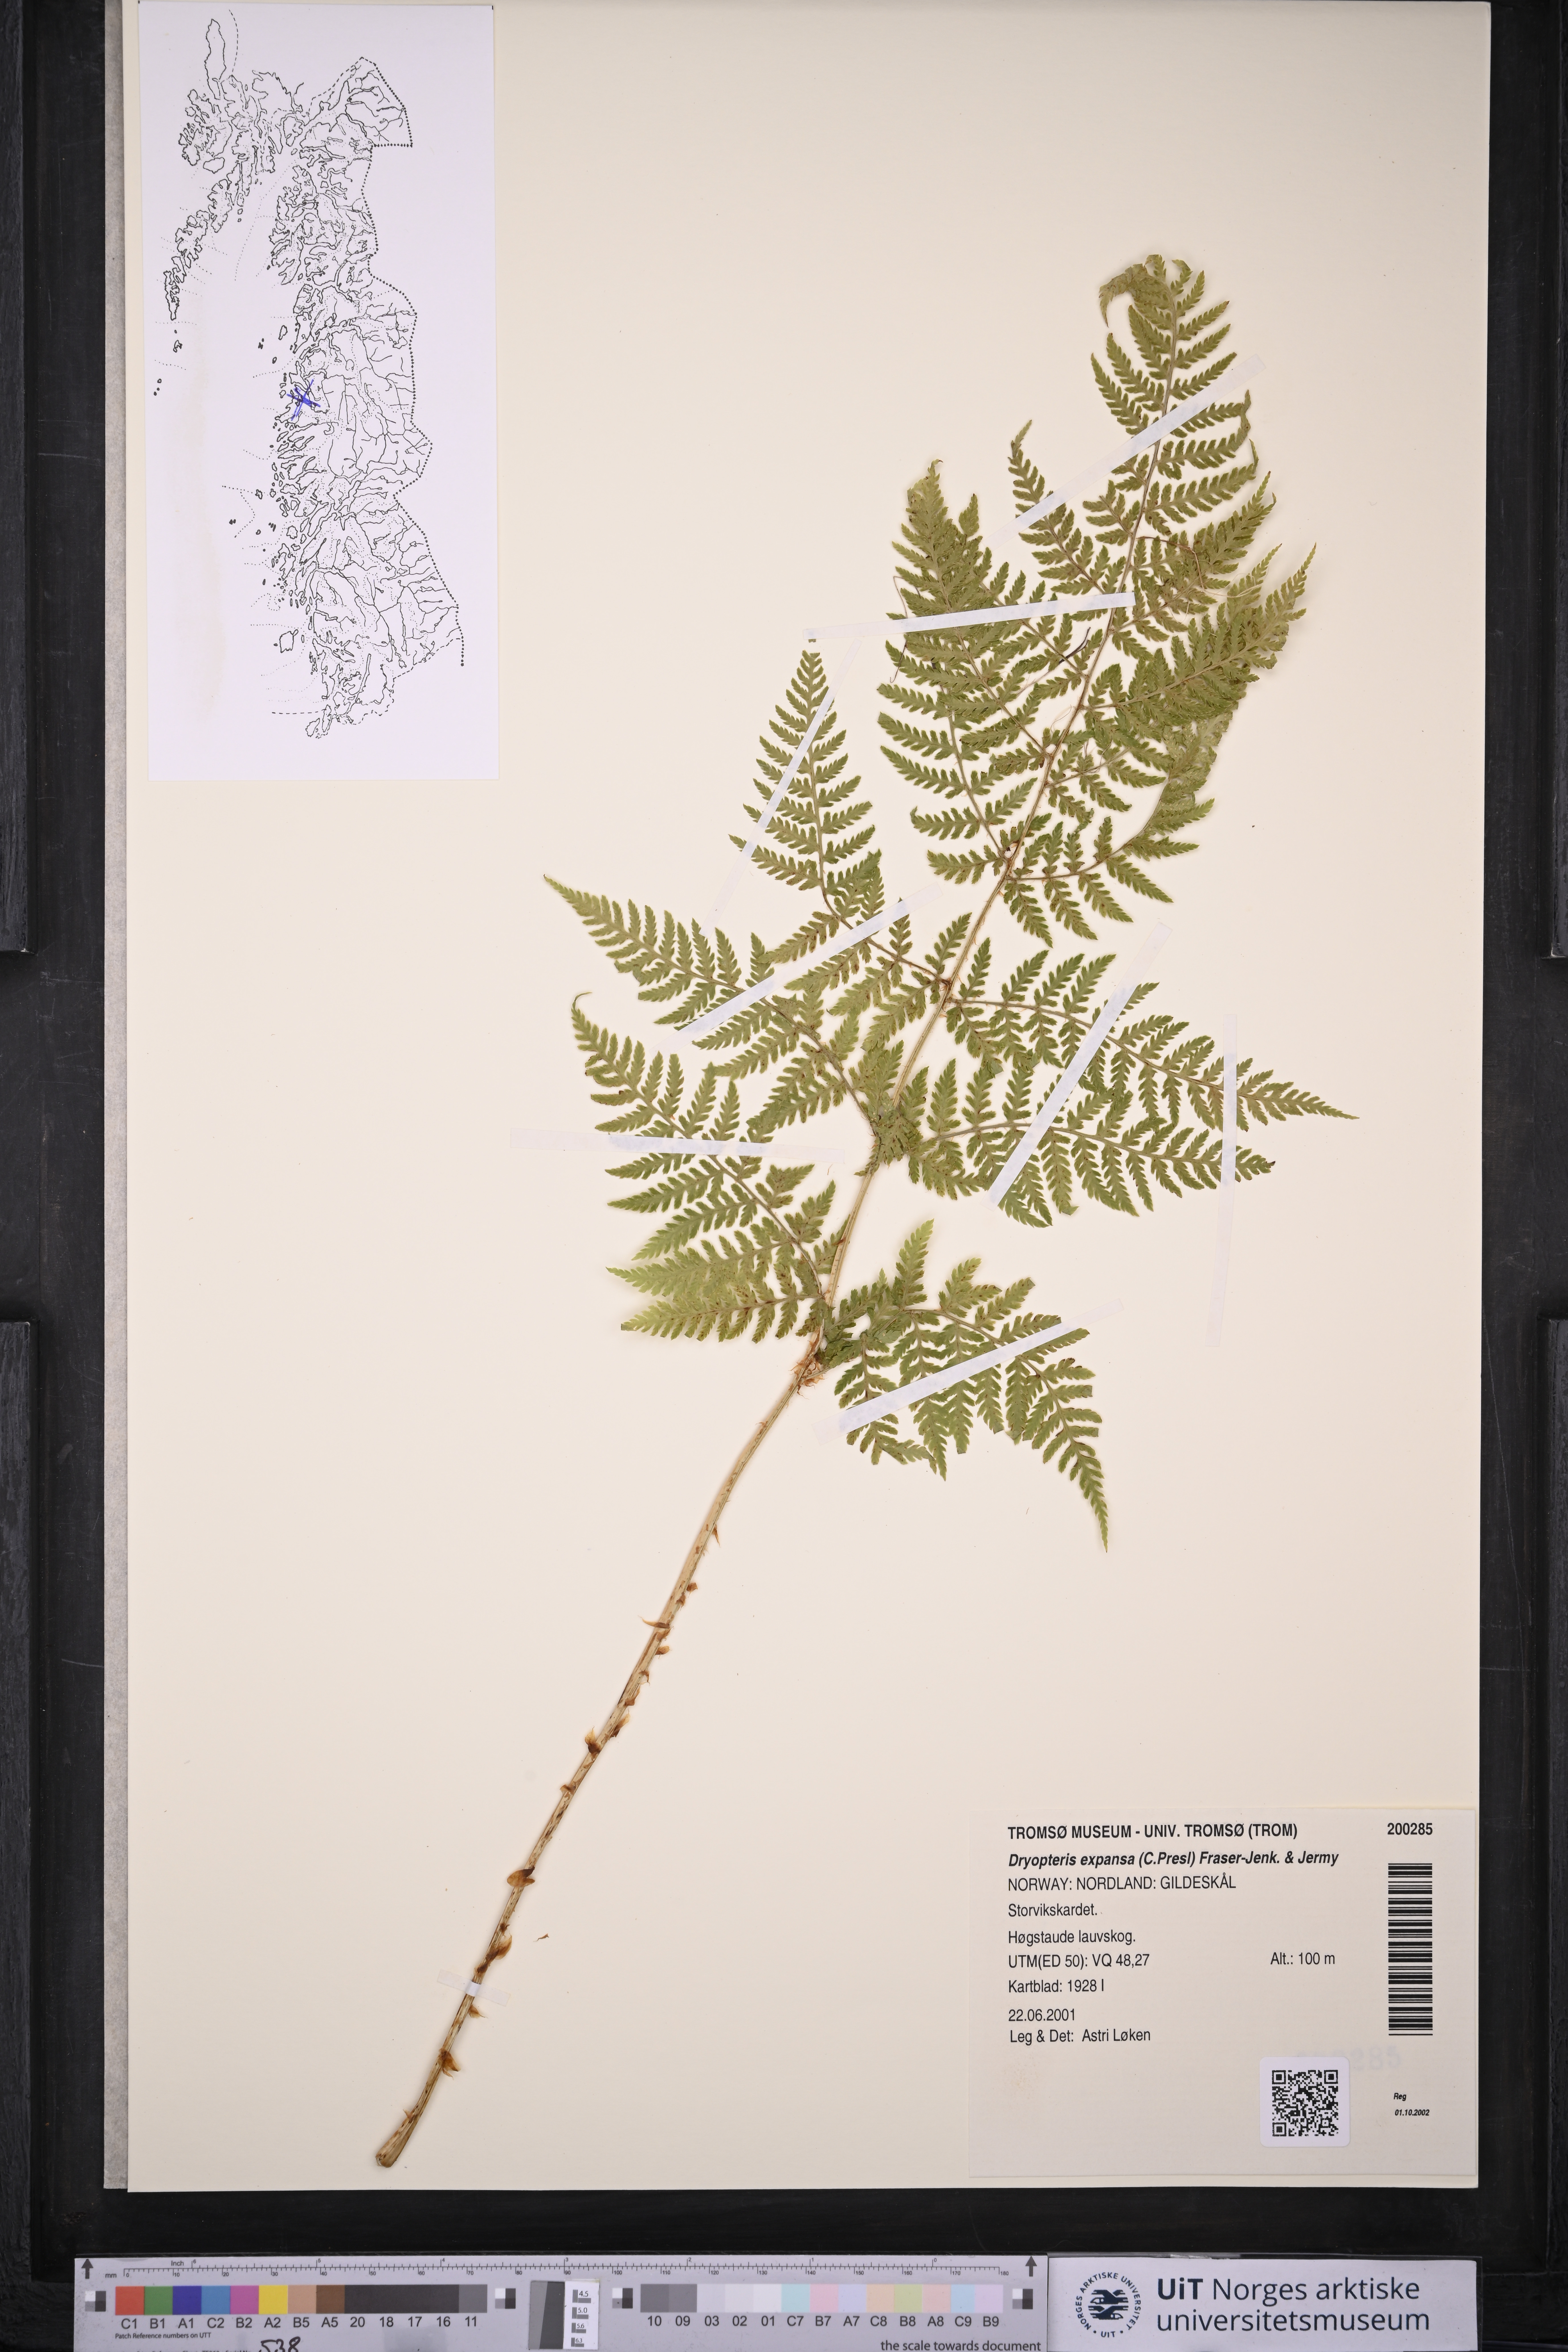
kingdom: Plantae
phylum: Tracheophyta
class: Polypodiopsida
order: Polypodiales
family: Dryopteridaceae
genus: Dryopteris
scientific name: Dryopteris expansa
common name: Northern buckler fern
